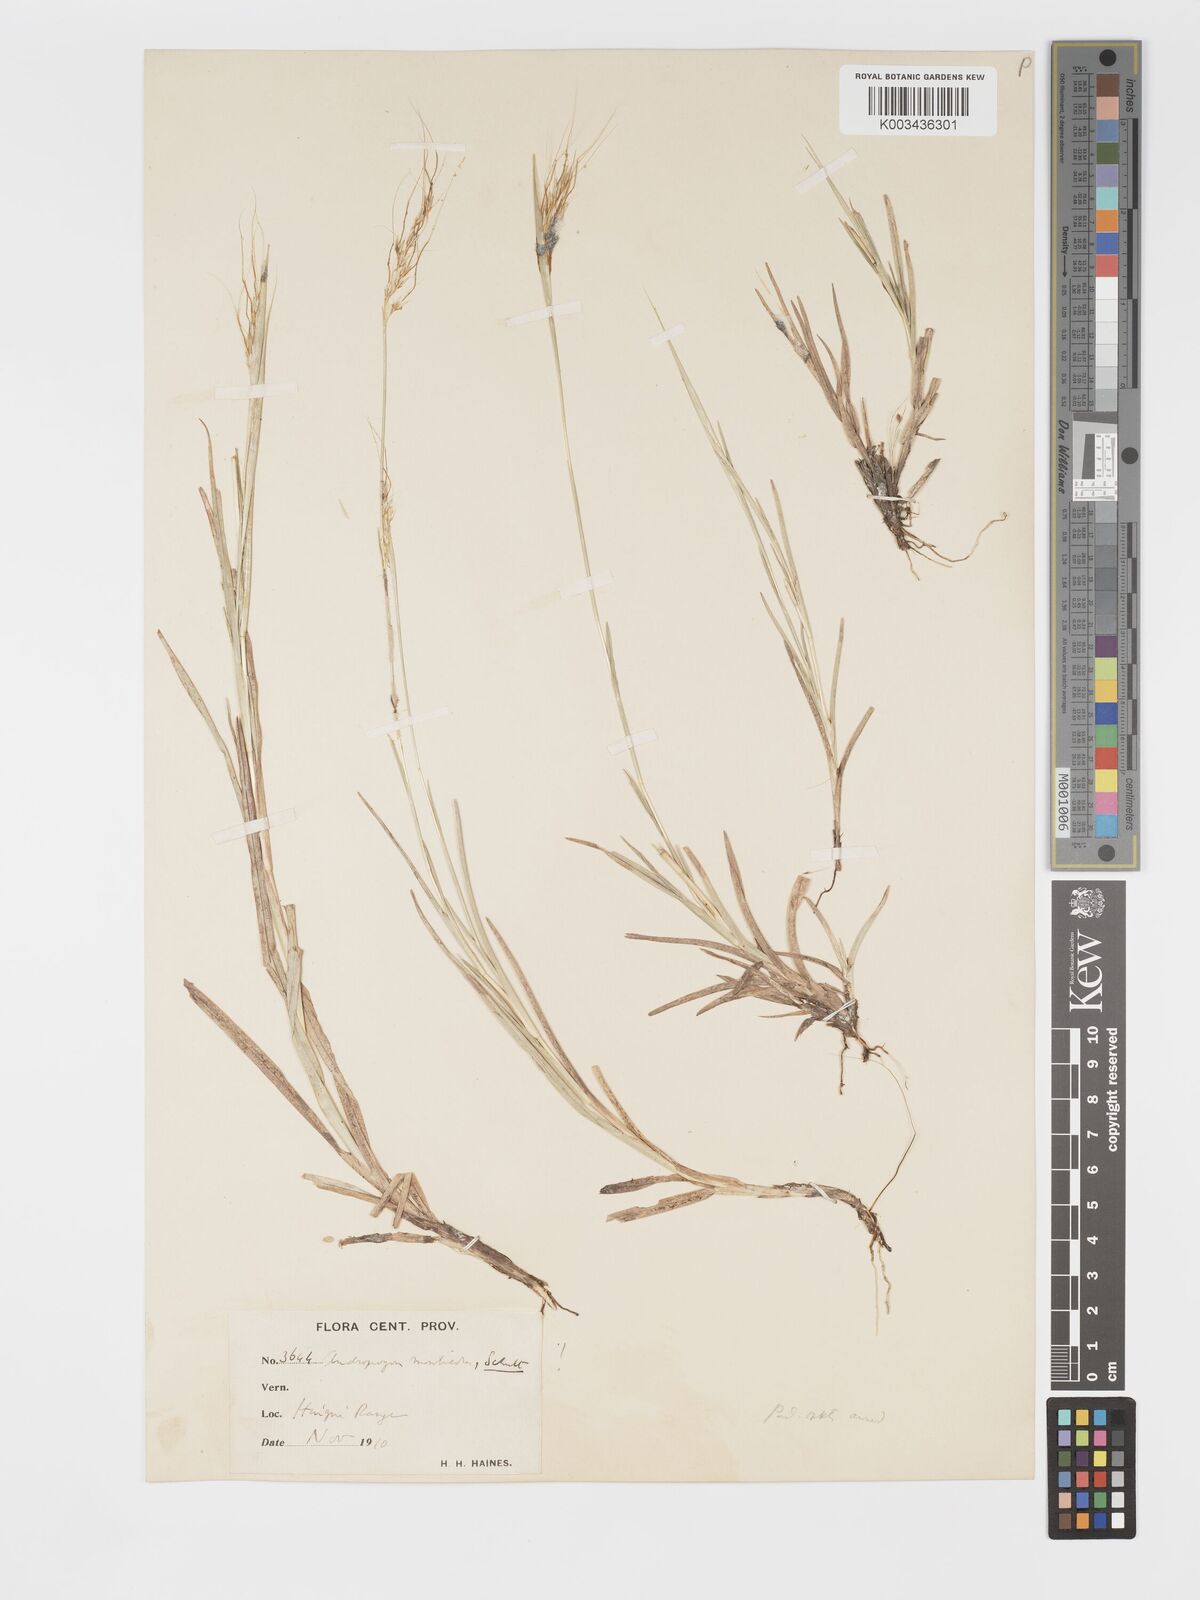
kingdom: Plantae
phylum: Tracheophyta
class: Liliopsida
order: Poales
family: Poaceae
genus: Chrysopogon
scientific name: Chrysopogon fulvus
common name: Red false beardgrass
